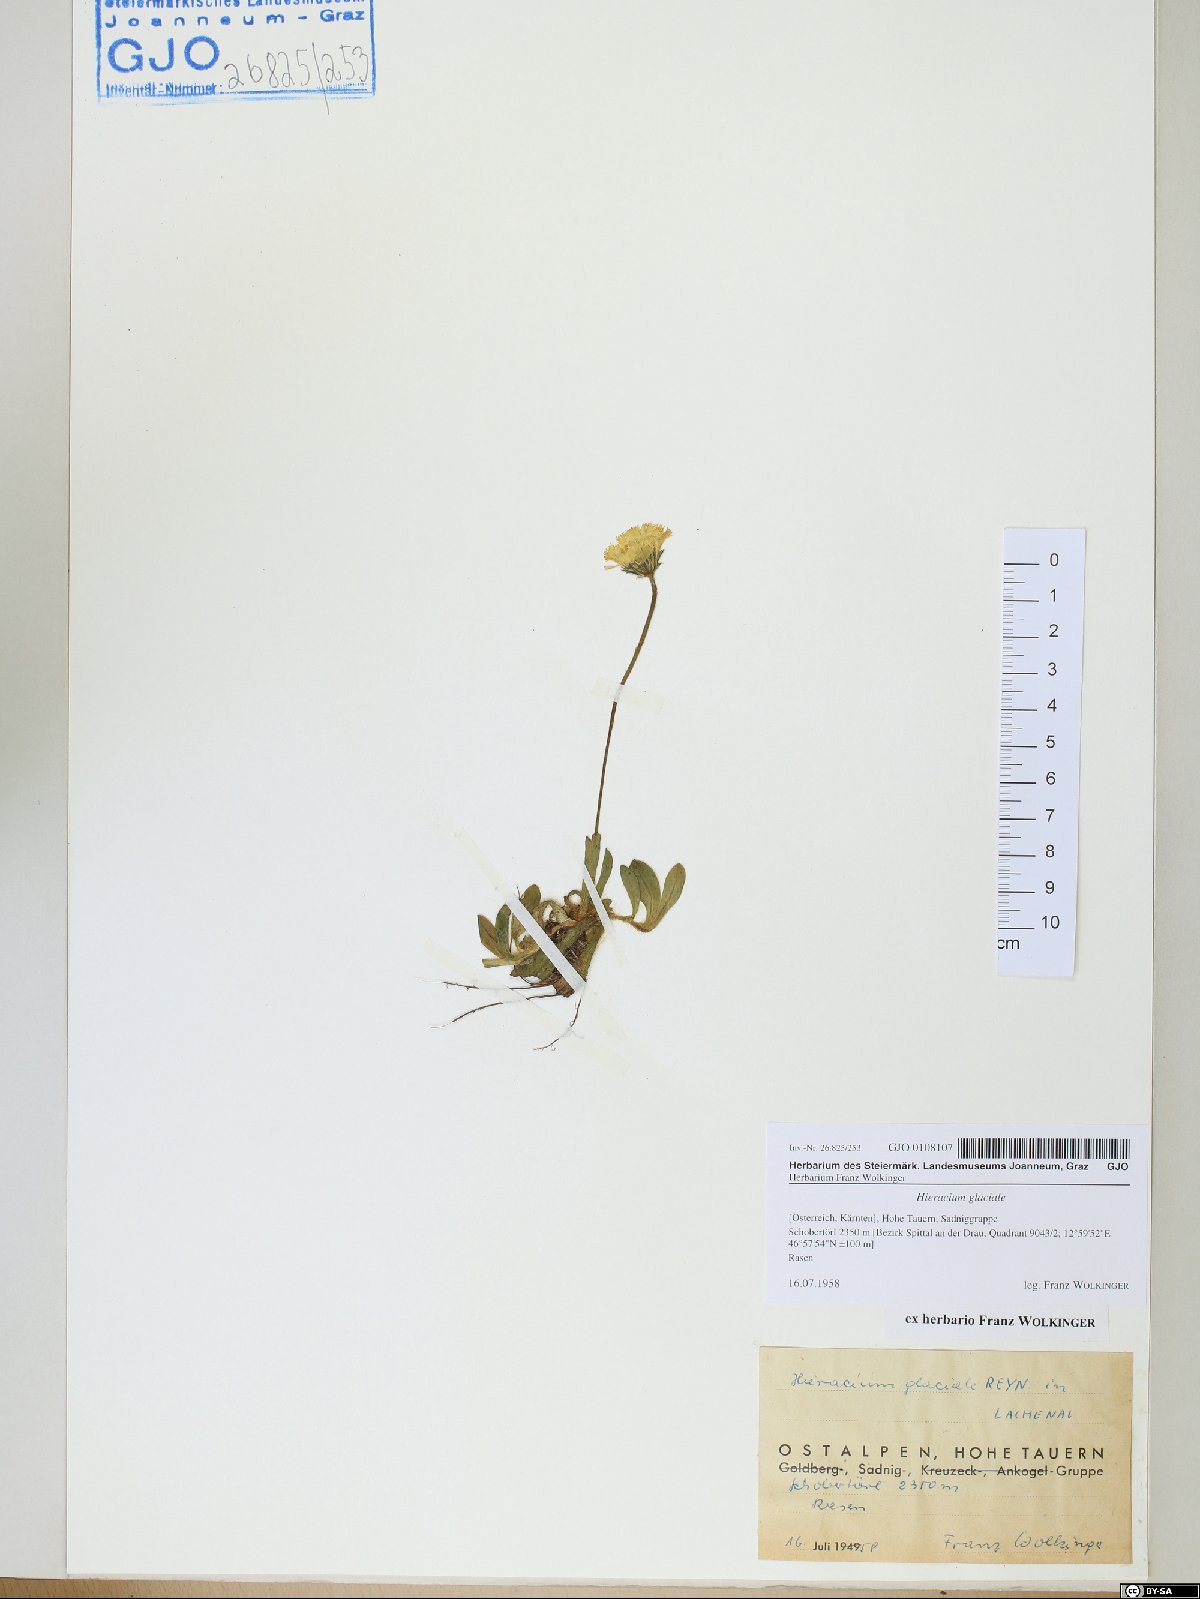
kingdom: Plantae
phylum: Tracheophyta
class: Magnoliopsida
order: Asterales
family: Asteraceae
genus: Pilosella
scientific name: Pilosella glacialis
